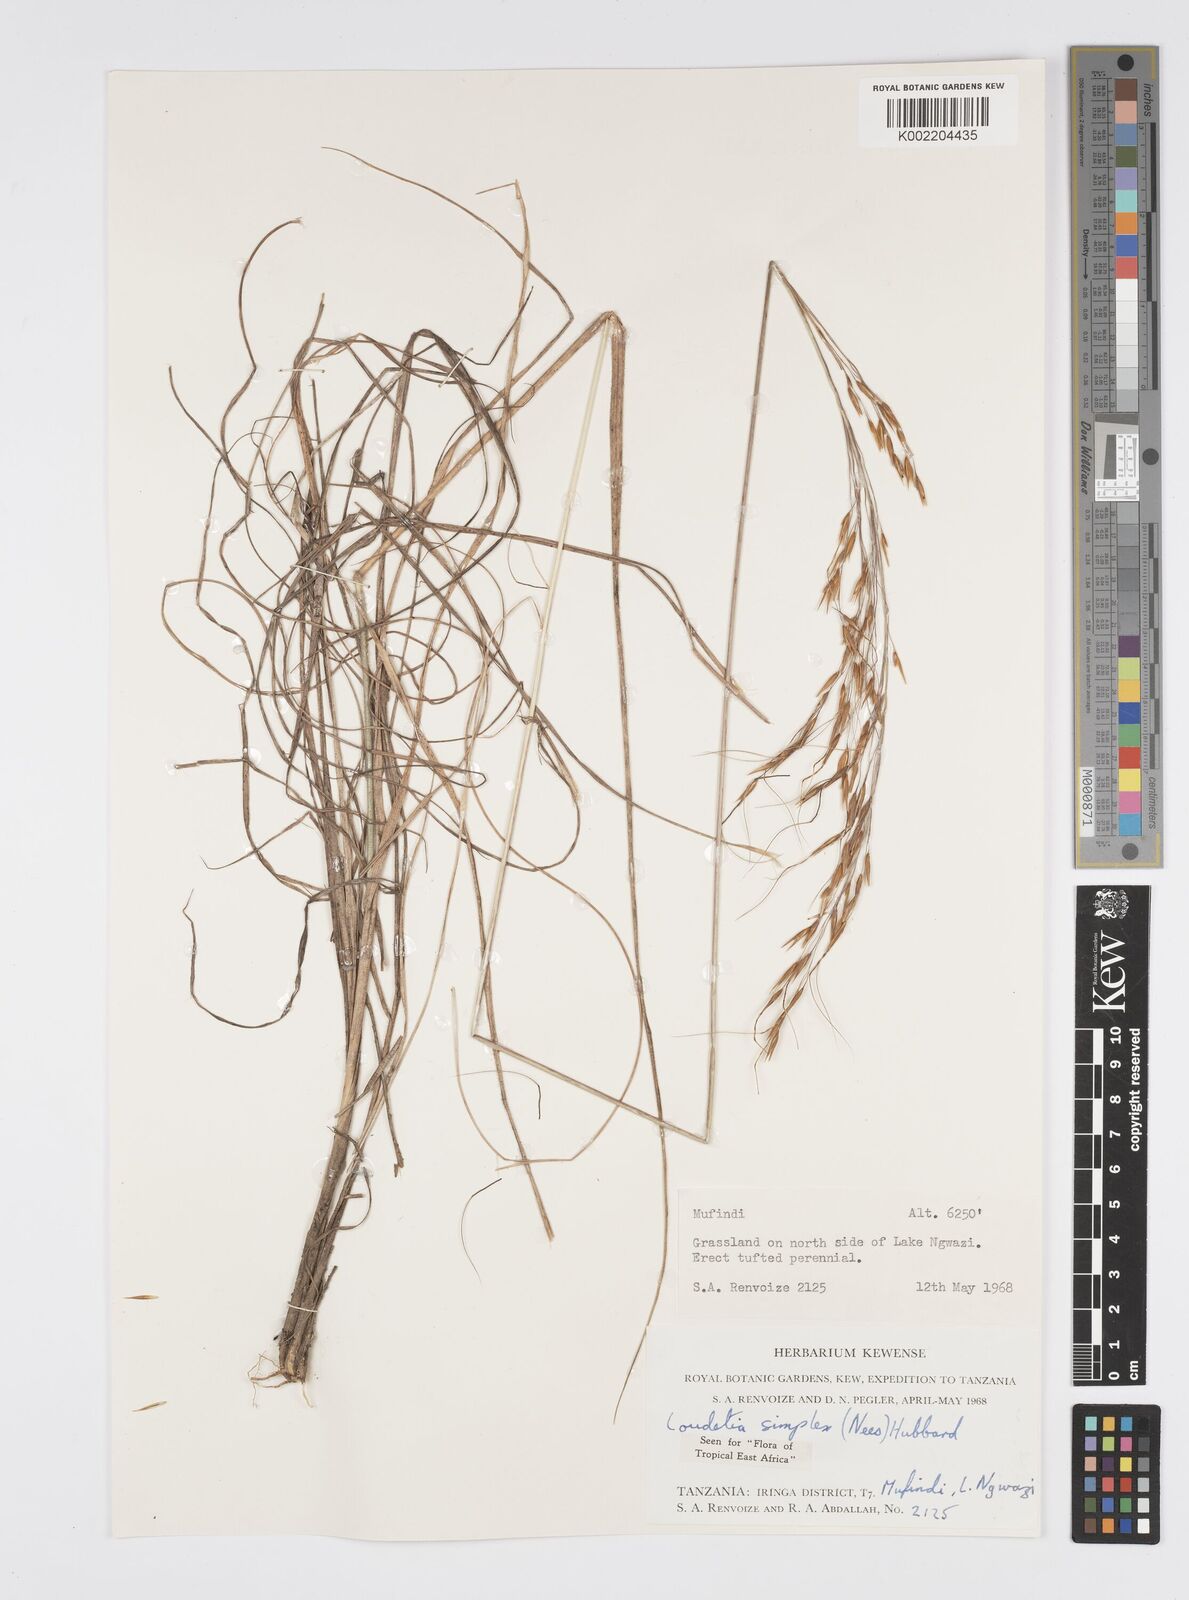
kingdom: Plantae
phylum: Tracheophyta
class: Liliopsida
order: Poales
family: Poaceae
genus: Loudetia
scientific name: Loudetia simplex
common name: Common russet grass
